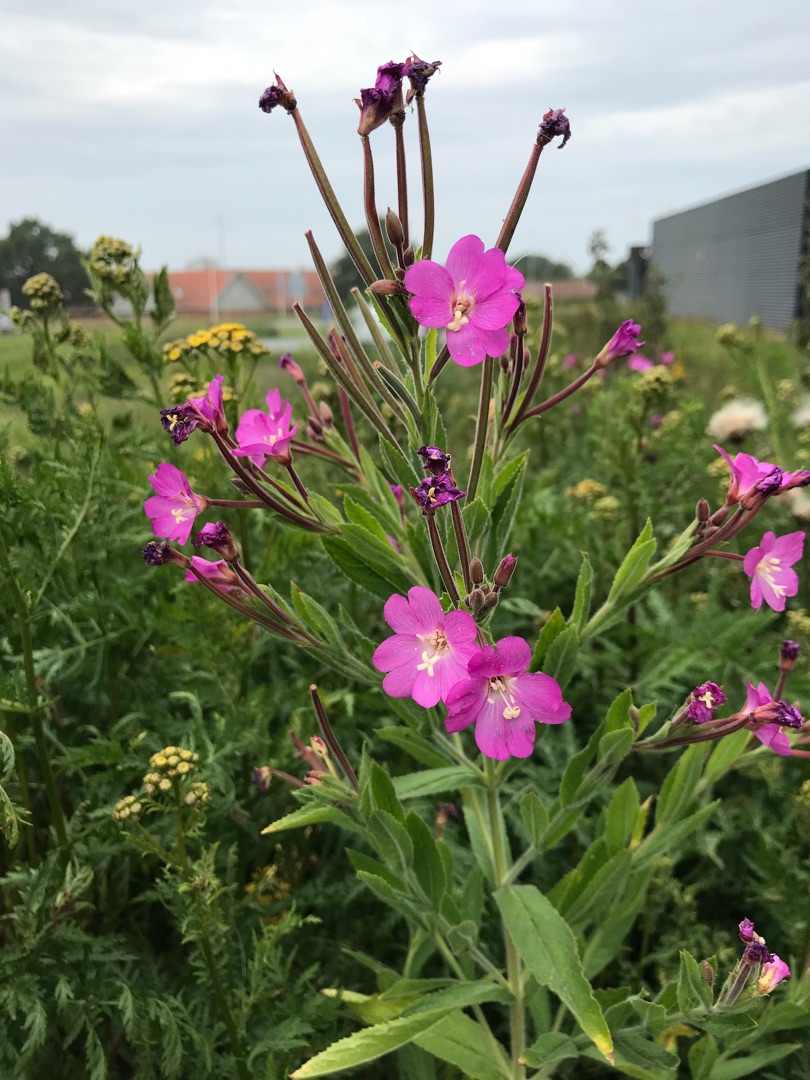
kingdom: Plantae
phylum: Tracheophyta
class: Magnoliopsida
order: Myrtales
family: Onagraceae
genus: Epilobium
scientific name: Epilobium hirsutum
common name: Lådden dueurt
